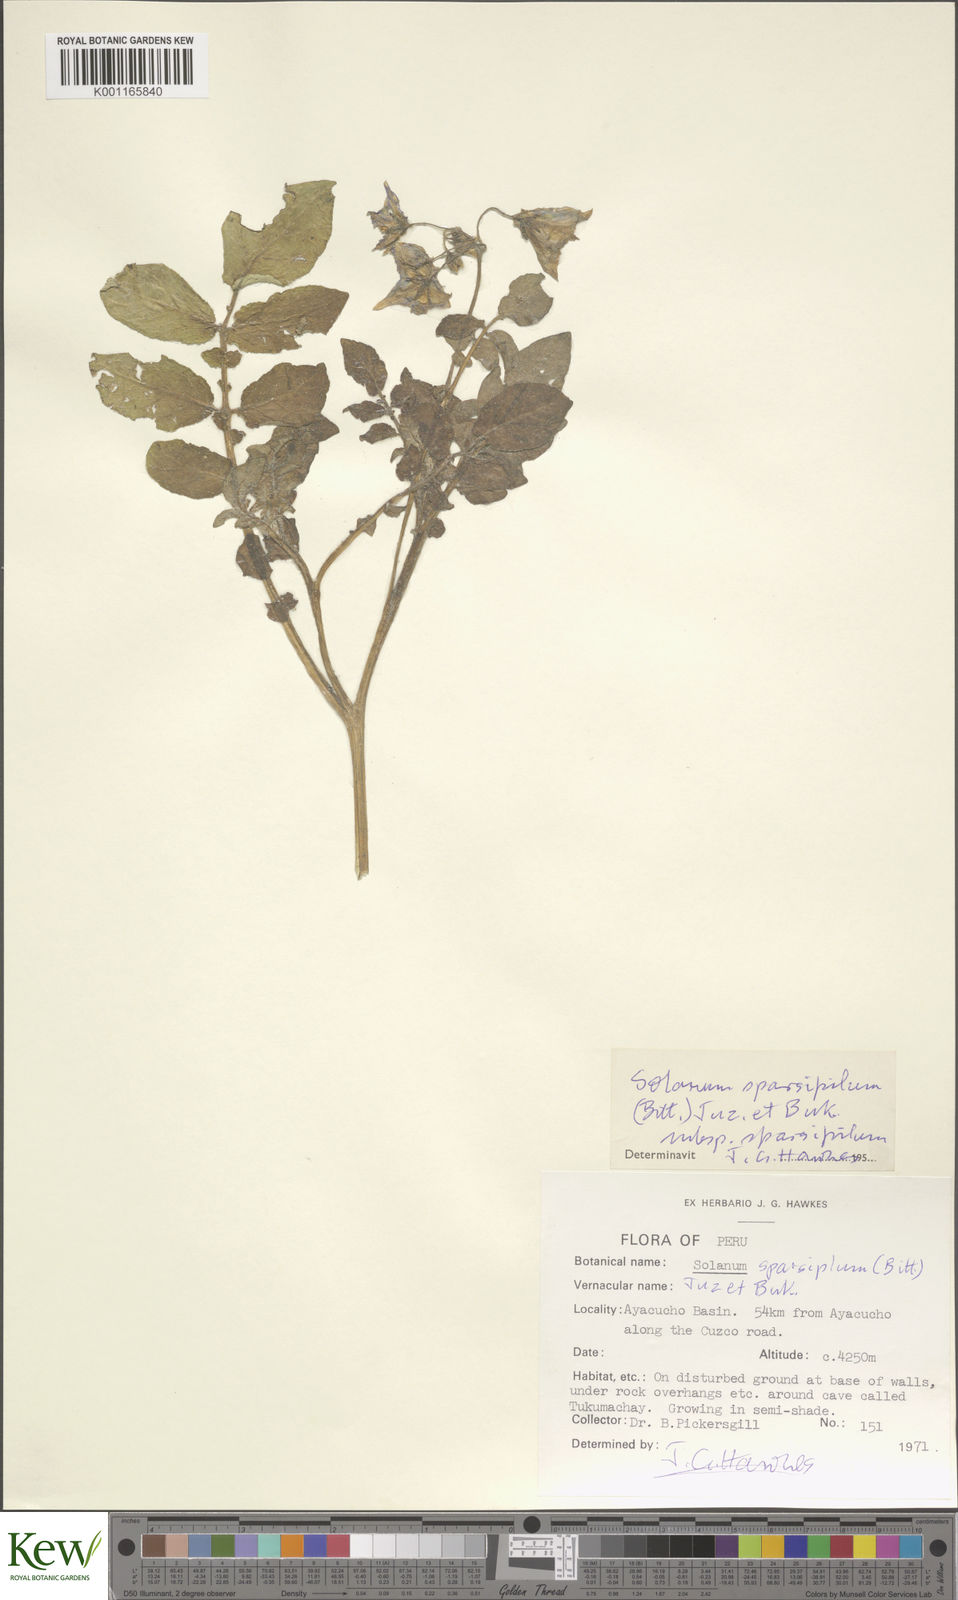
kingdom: Plantae
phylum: Tracheophyta
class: Magnoliopsida
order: Solanales
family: Solanaceae
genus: Solanum
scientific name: Solanum brevicaule
